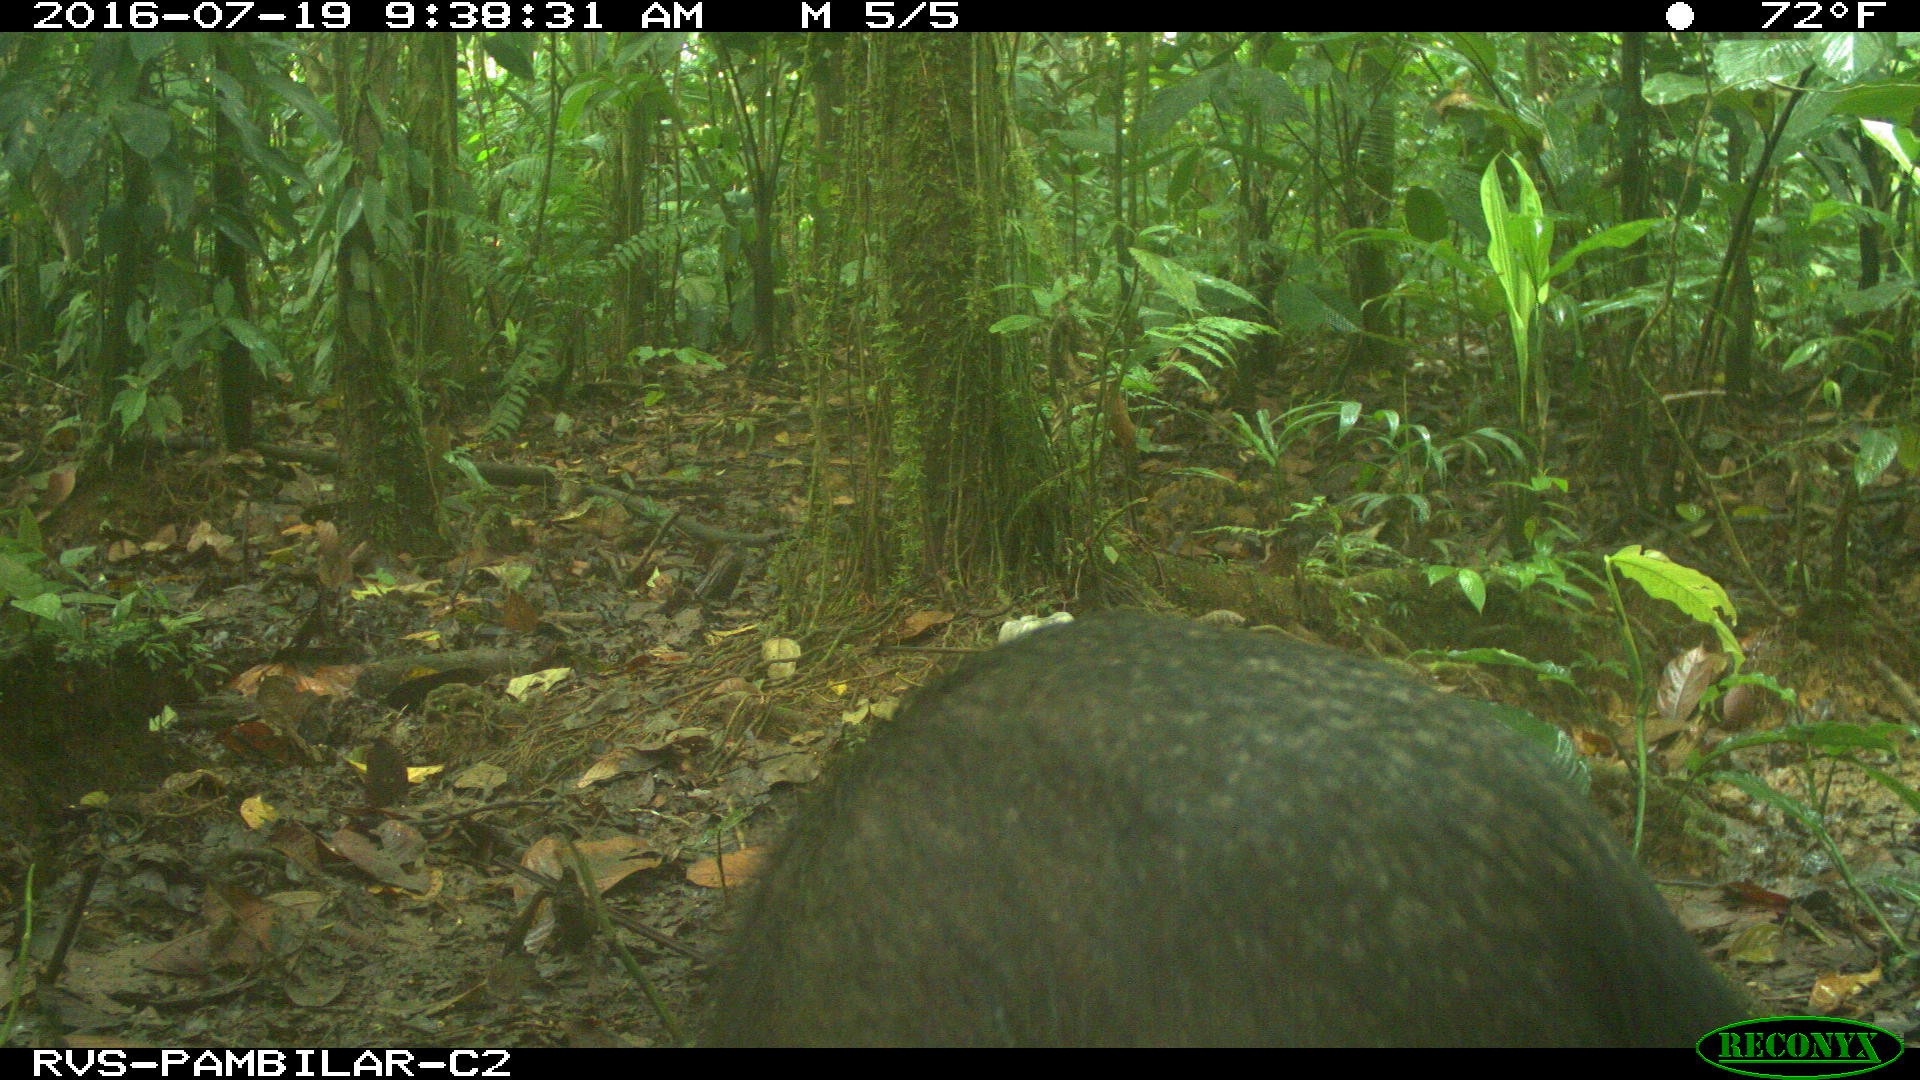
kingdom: Animalia
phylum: Chordata
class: Mammalia
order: Artiodactyla
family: Tayassuidae
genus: Tayassu
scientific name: Tayassu pecari
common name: White-lipped peccary
